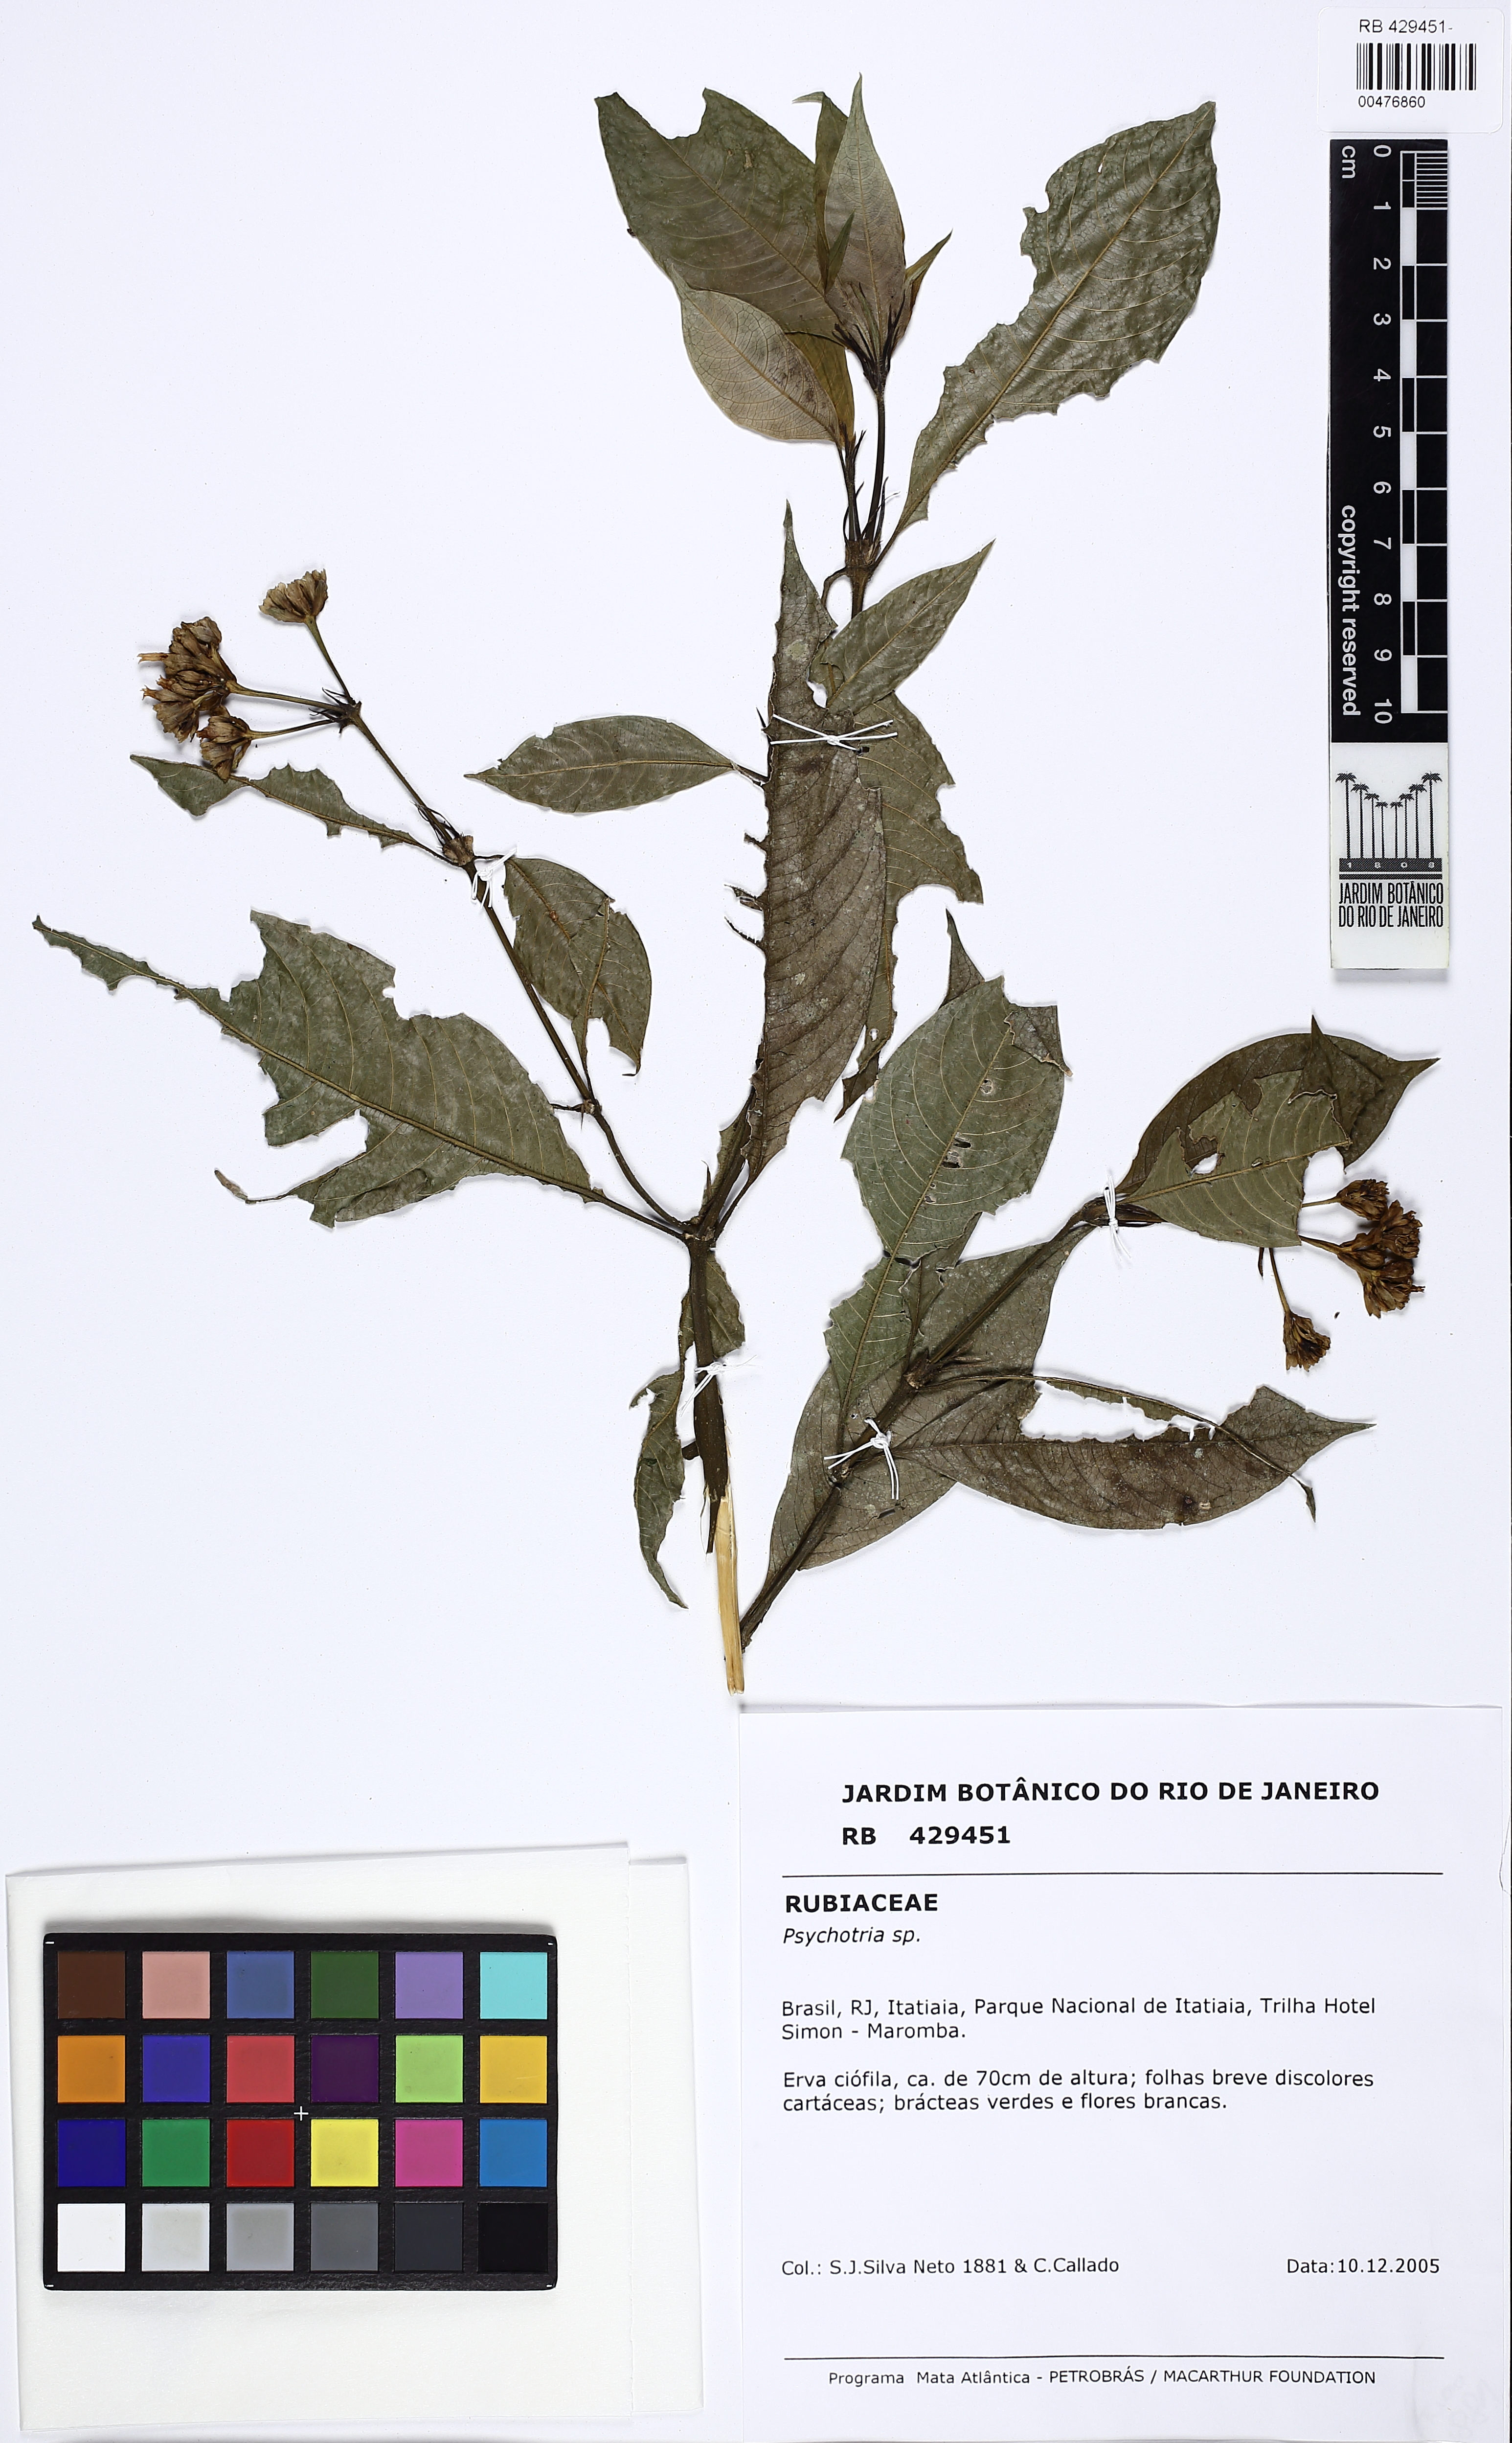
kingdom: Plantae
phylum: Tracheophyta
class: Magnoliopsida
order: Gentianales
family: Rubiaceae
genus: Palicourea
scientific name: Palicourea violacea
